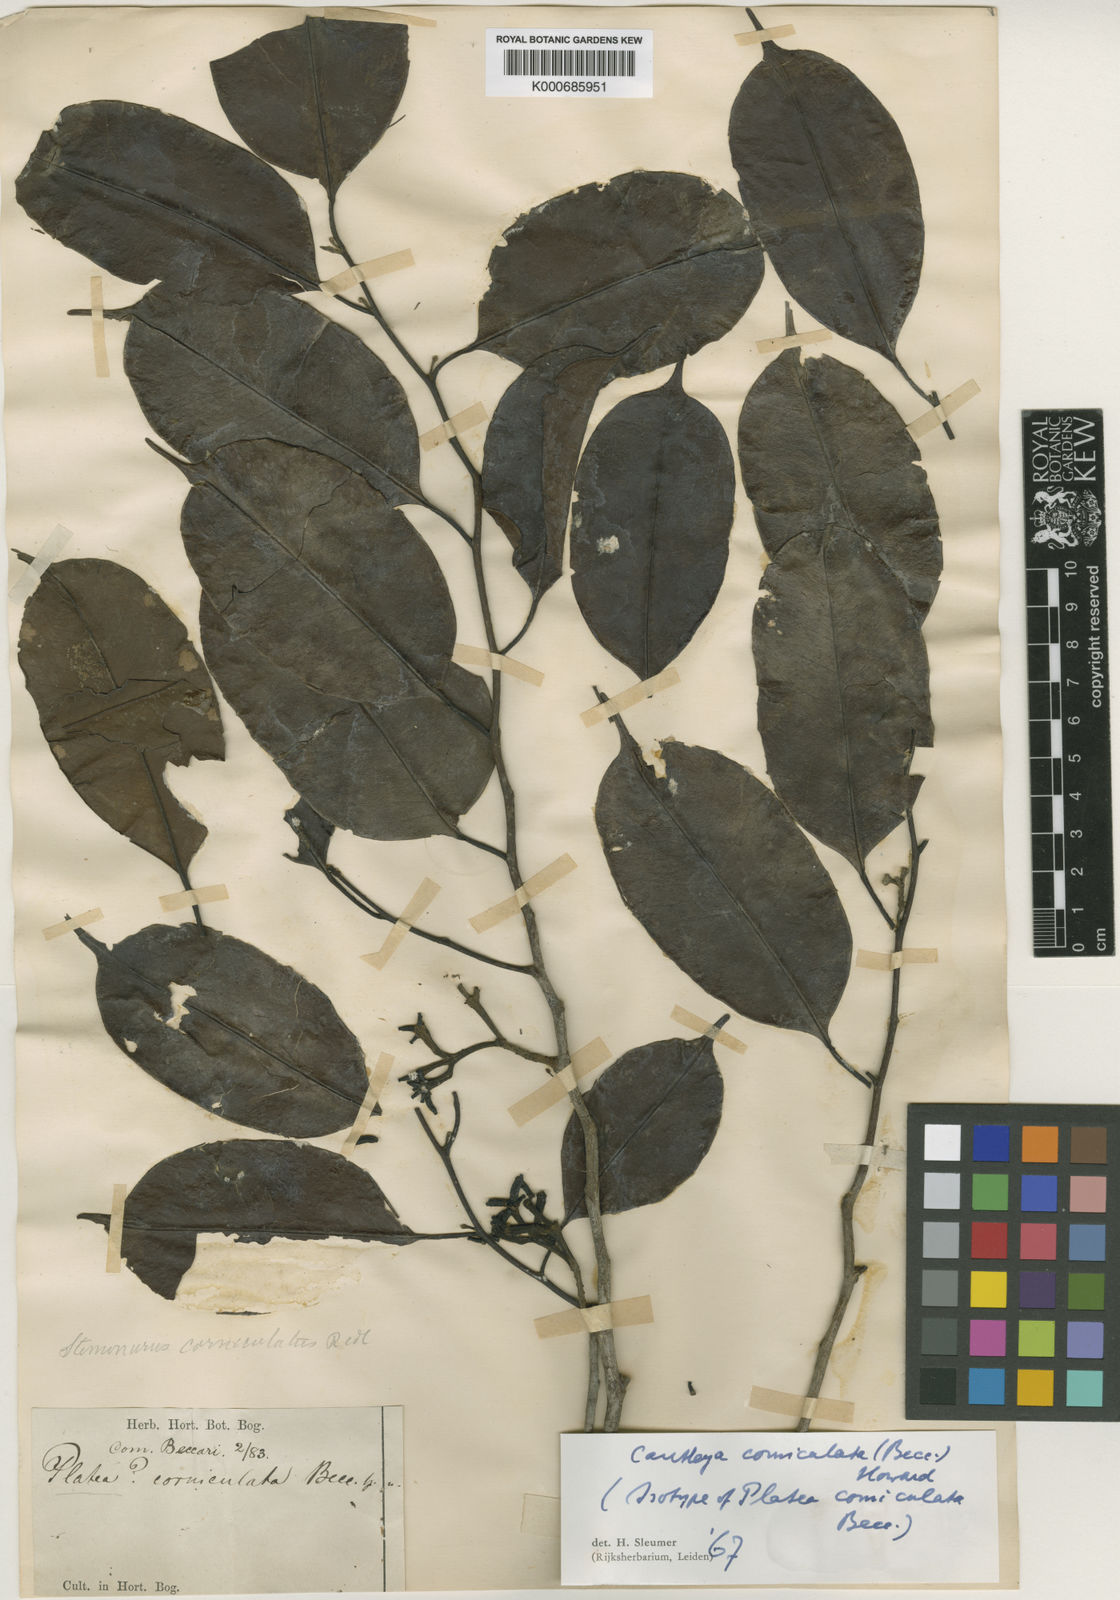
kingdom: Plantae
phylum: Tracheophyta
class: Magnoliopsida
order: Cardiopteridales
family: Stemonuraceae
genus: Cantleya
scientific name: Cantleya corniculata
